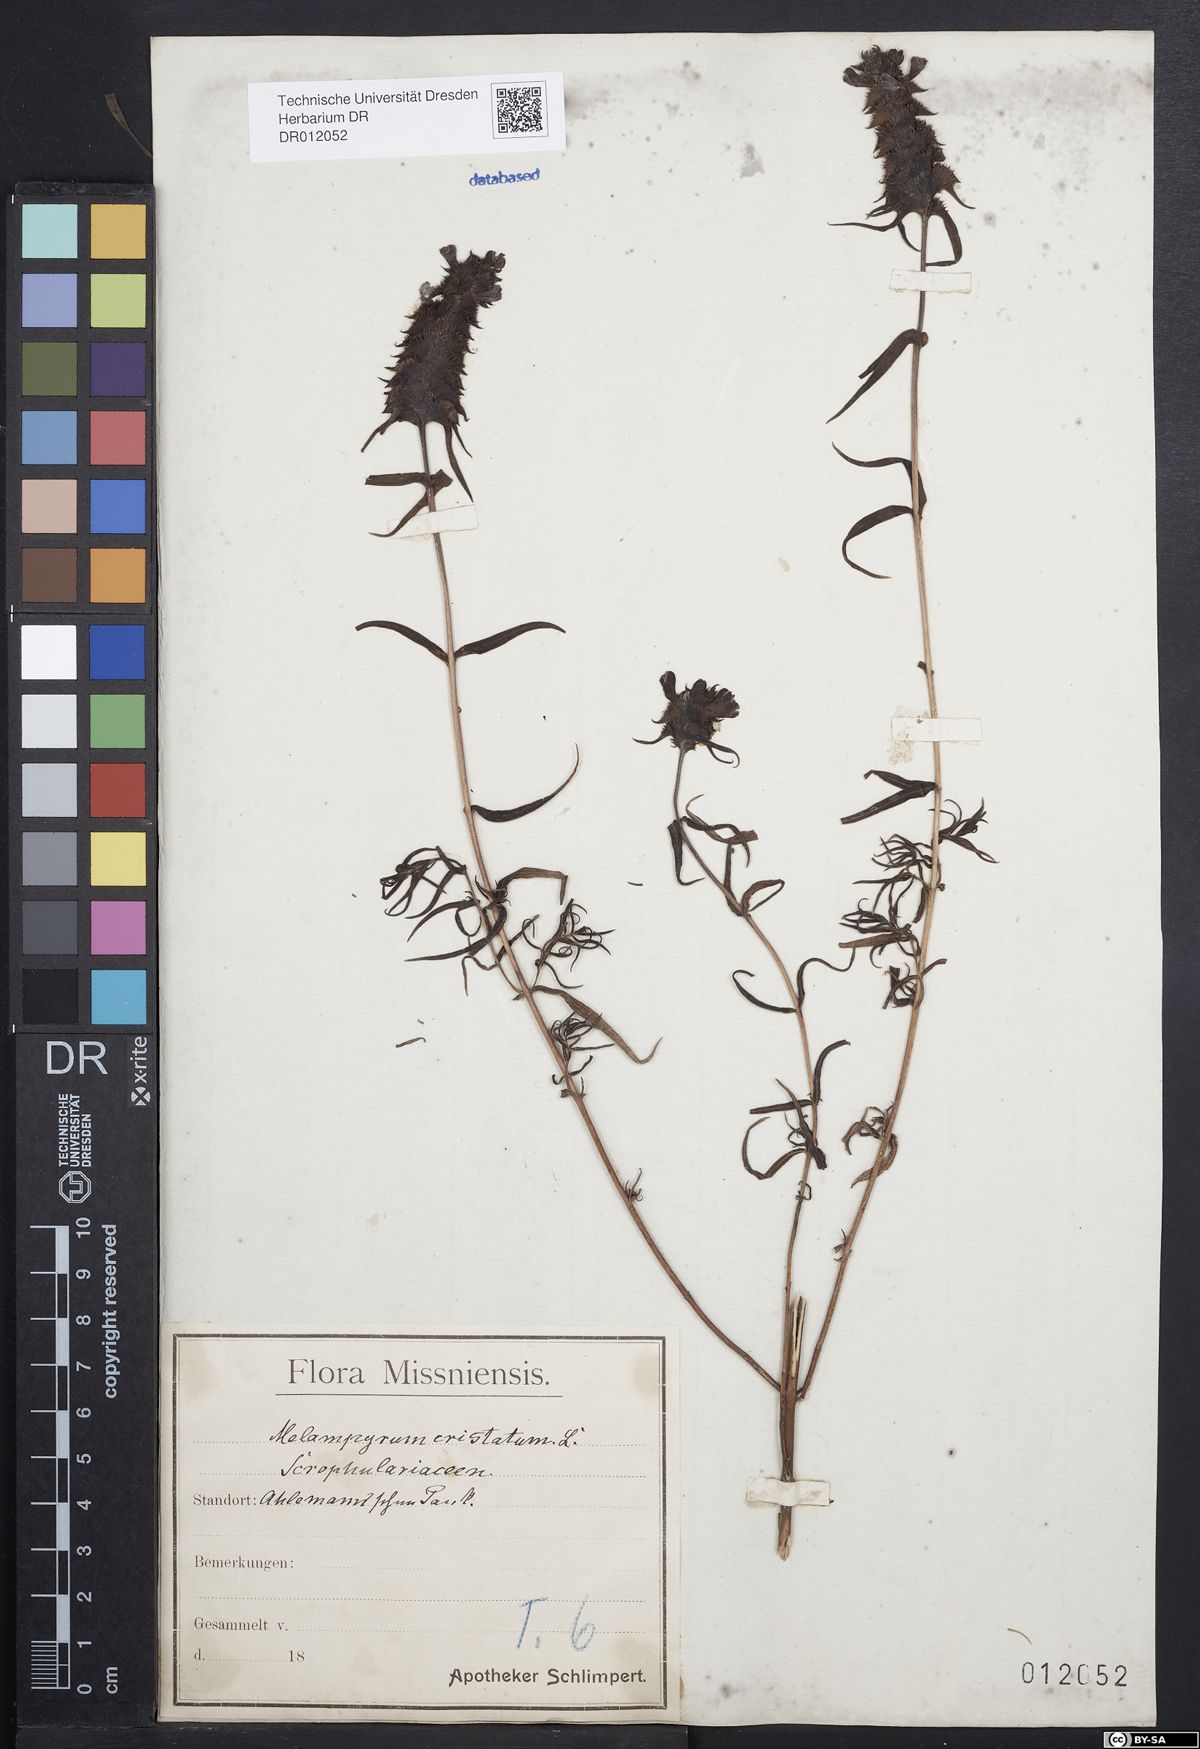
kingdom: Plantae
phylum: Tracheophyta
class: Magnoliopsida
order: Lamiales
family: Orobanchaceae
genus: Melampyrum
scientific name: Melampyrum cristatum
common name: Crested cow-wheat
